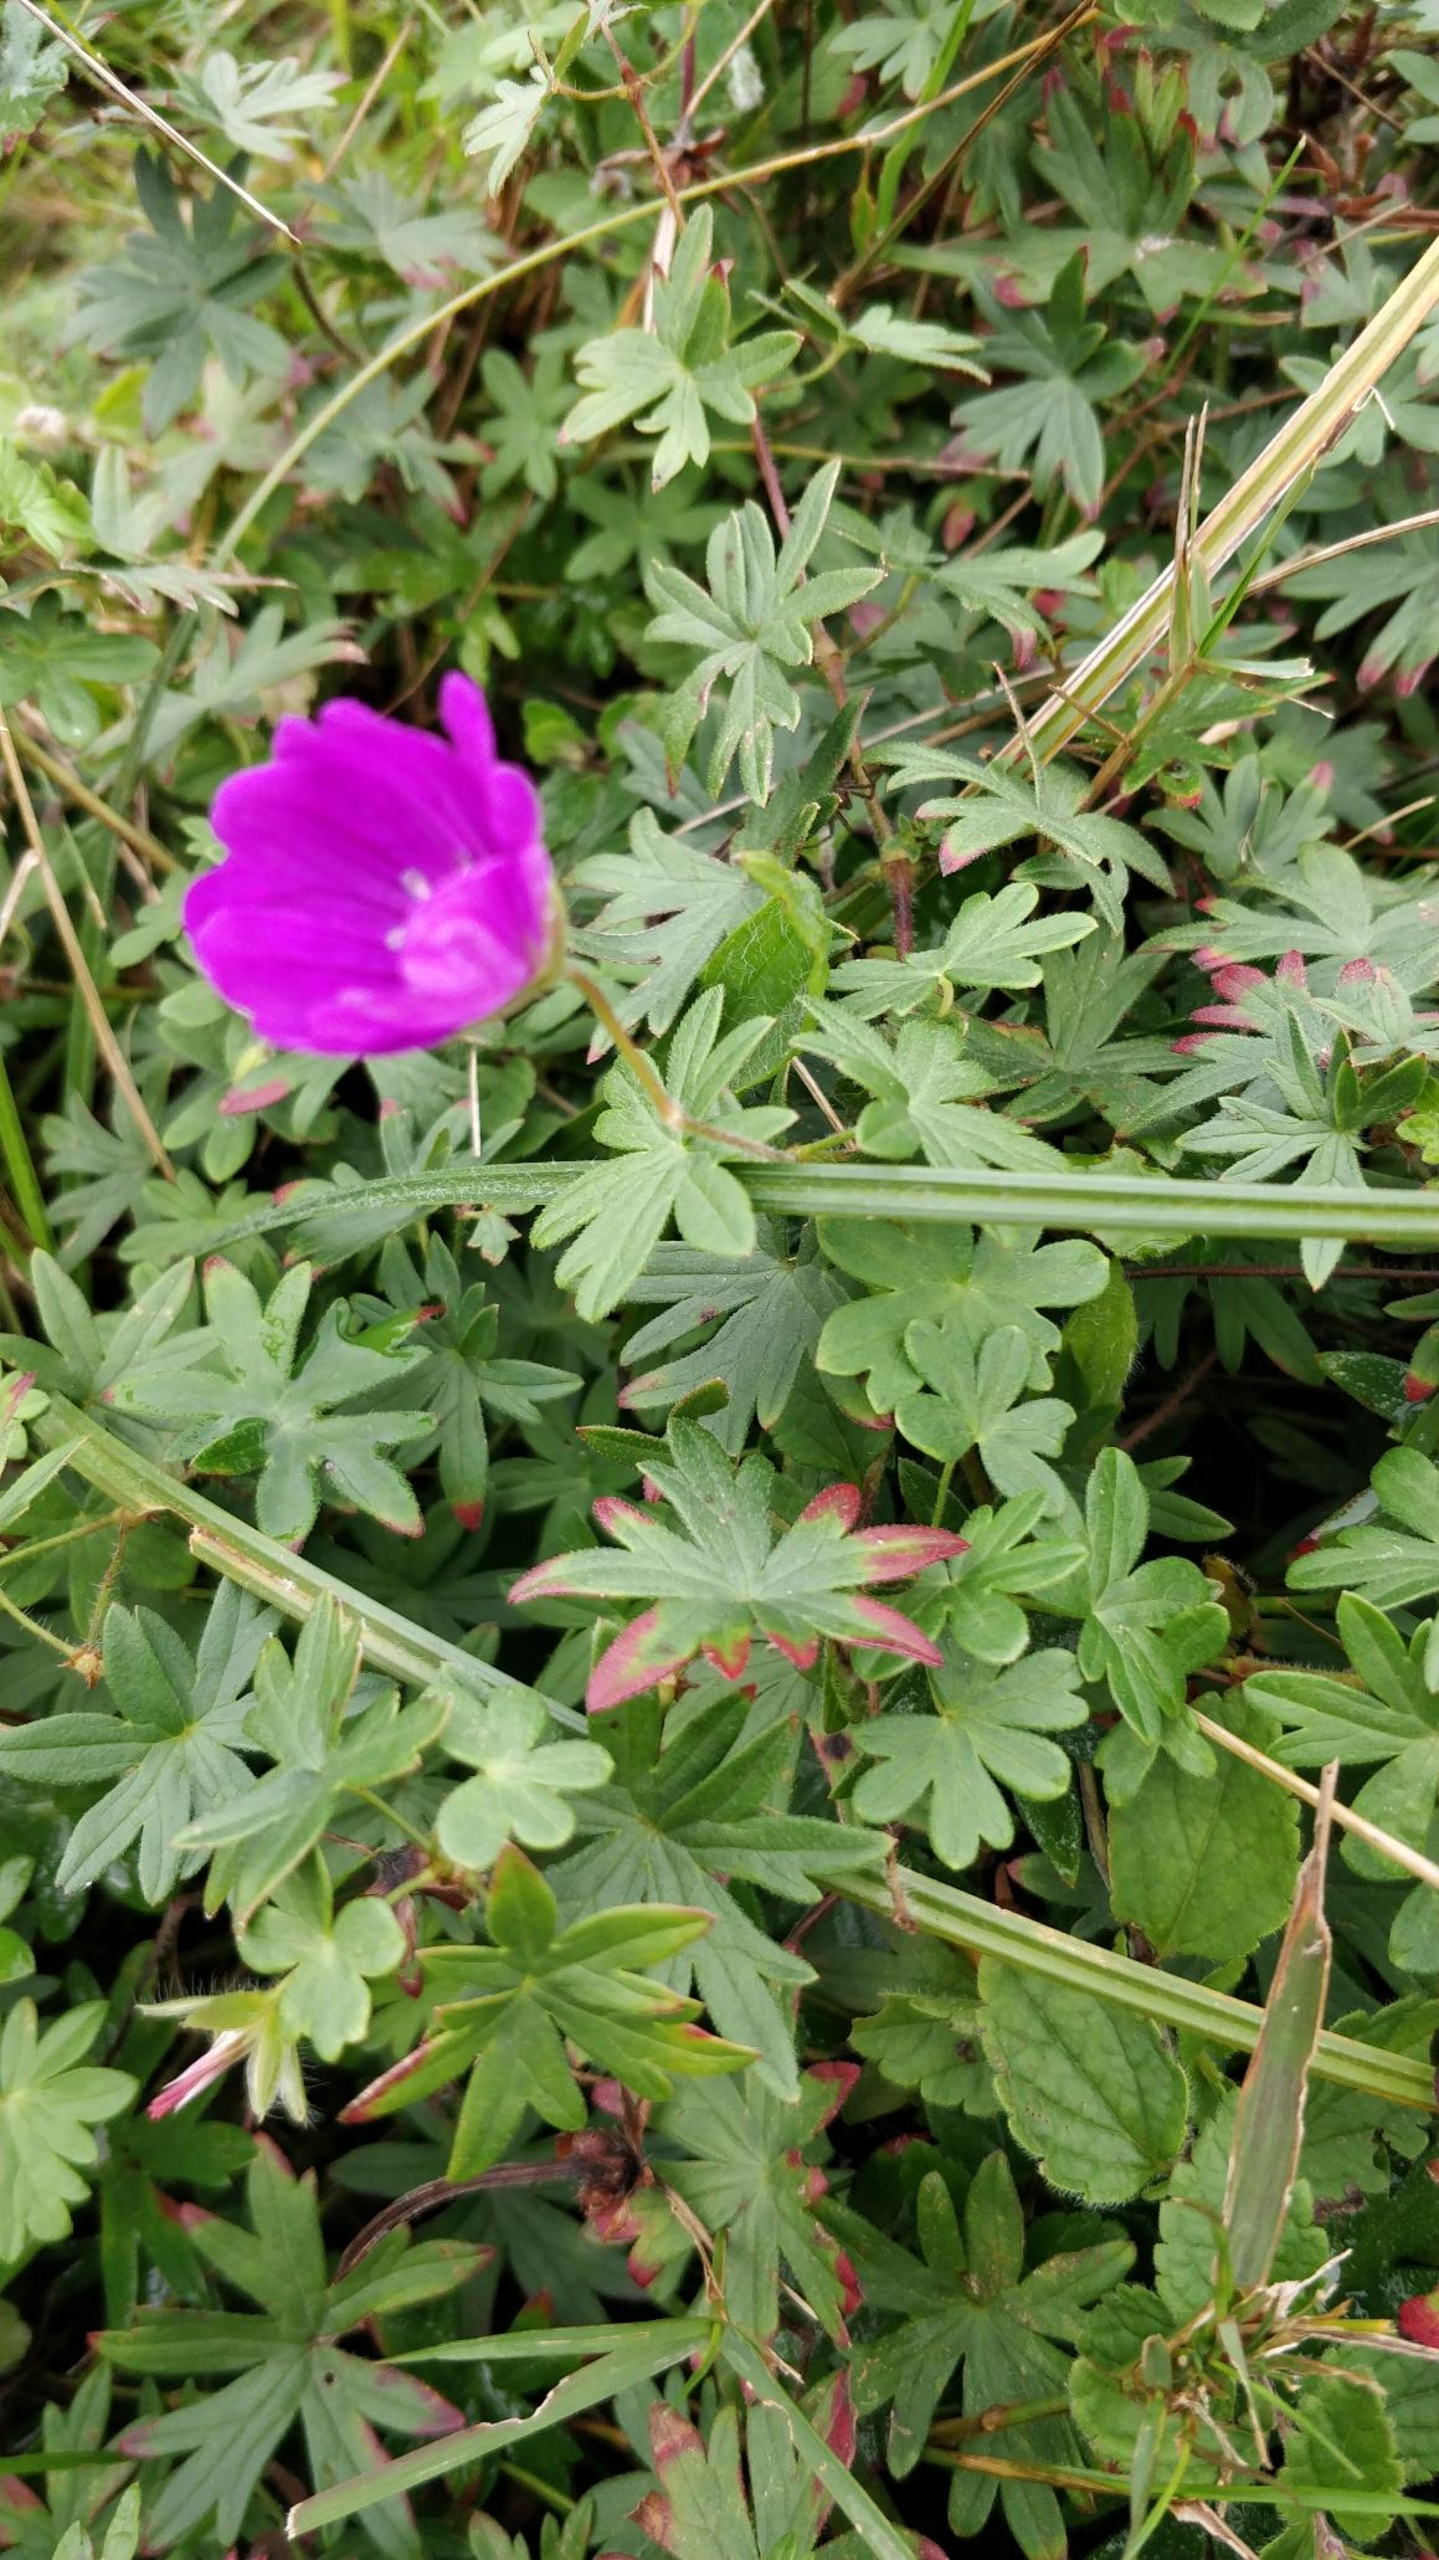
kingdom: Plantae
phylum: Tracheophyta
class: Magnoliopsida
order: Geraniales
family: Geraniaceae
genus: Geranium
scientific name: Geranium sanguineum
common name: Blodrød storkenæb
